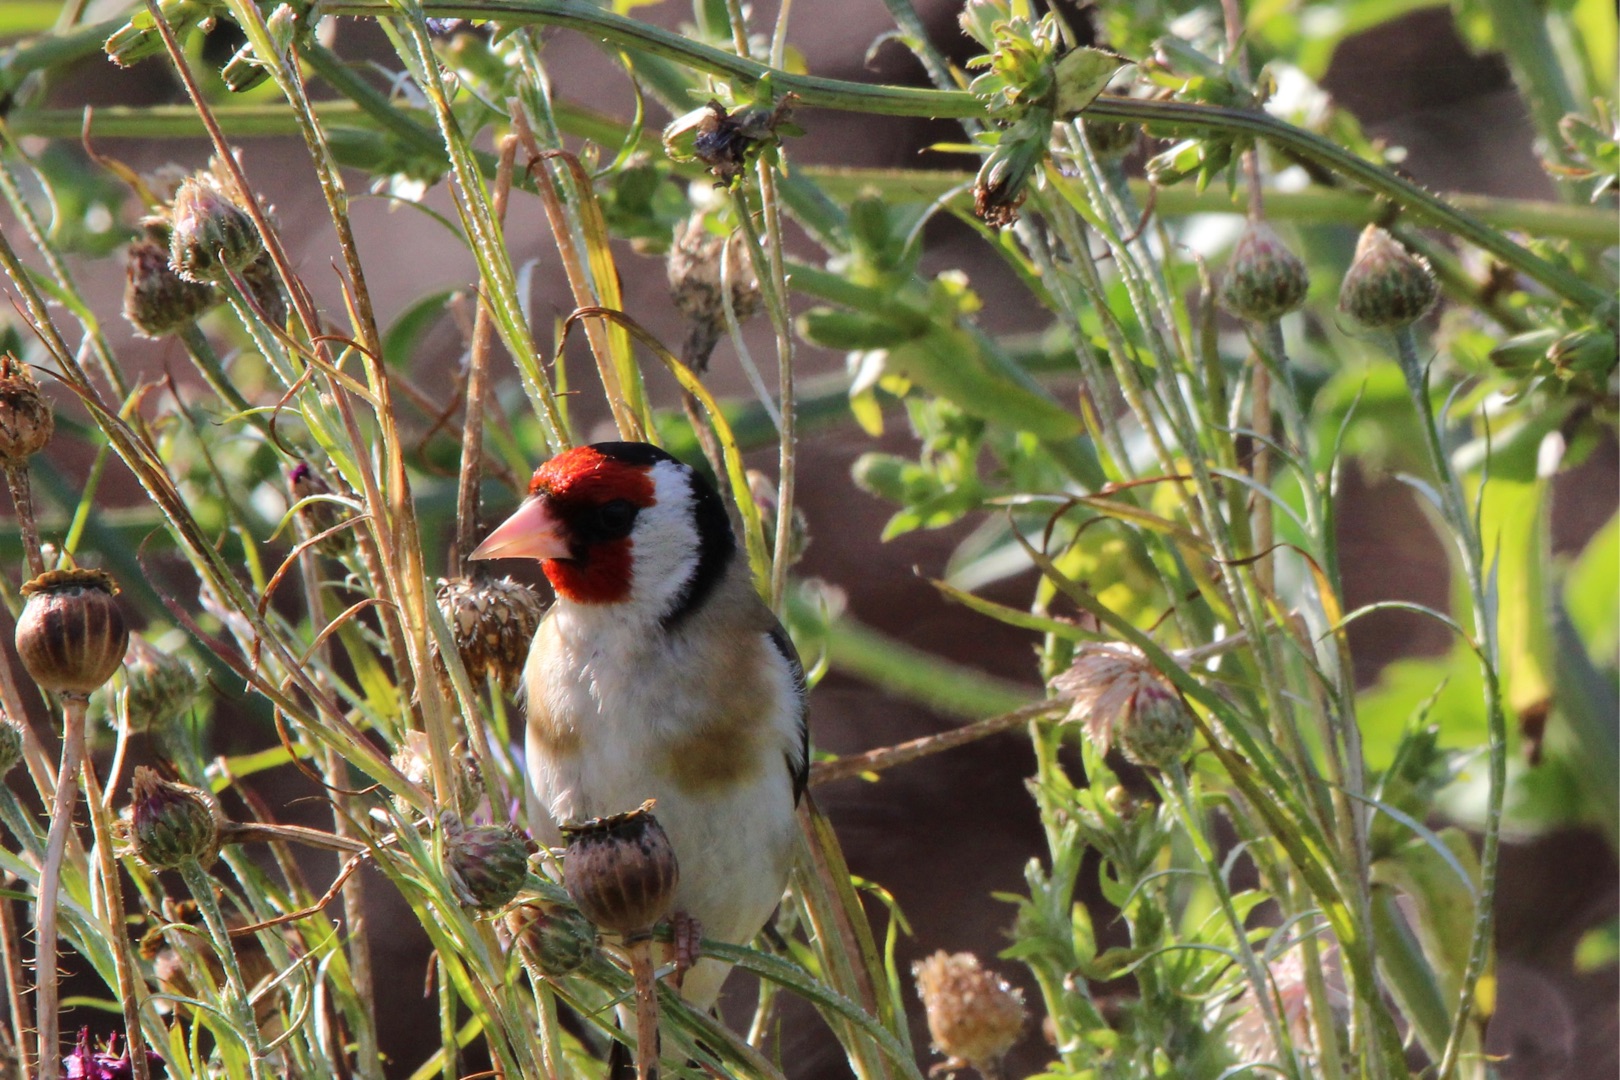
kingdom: Animalia
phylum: Chordata
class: Aves
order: Passeriformes
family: Fringillidae
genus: Carduelis
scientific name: Carduelis carduelis
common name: Stillits
